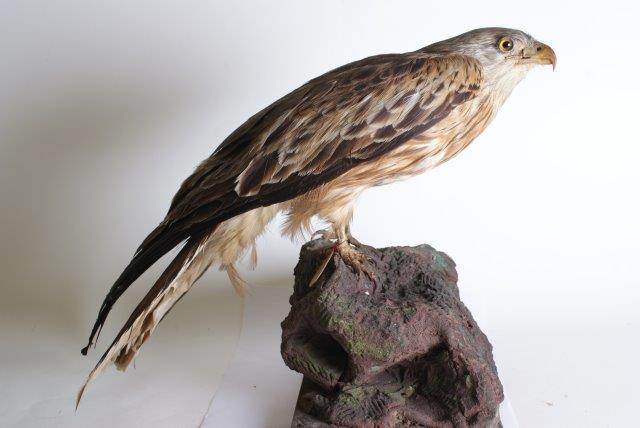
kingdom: Animalia
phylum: Chordata
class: Aves
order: Accipitriformes
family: Accipitridae
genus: Milvus
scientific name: Milvus milvus
